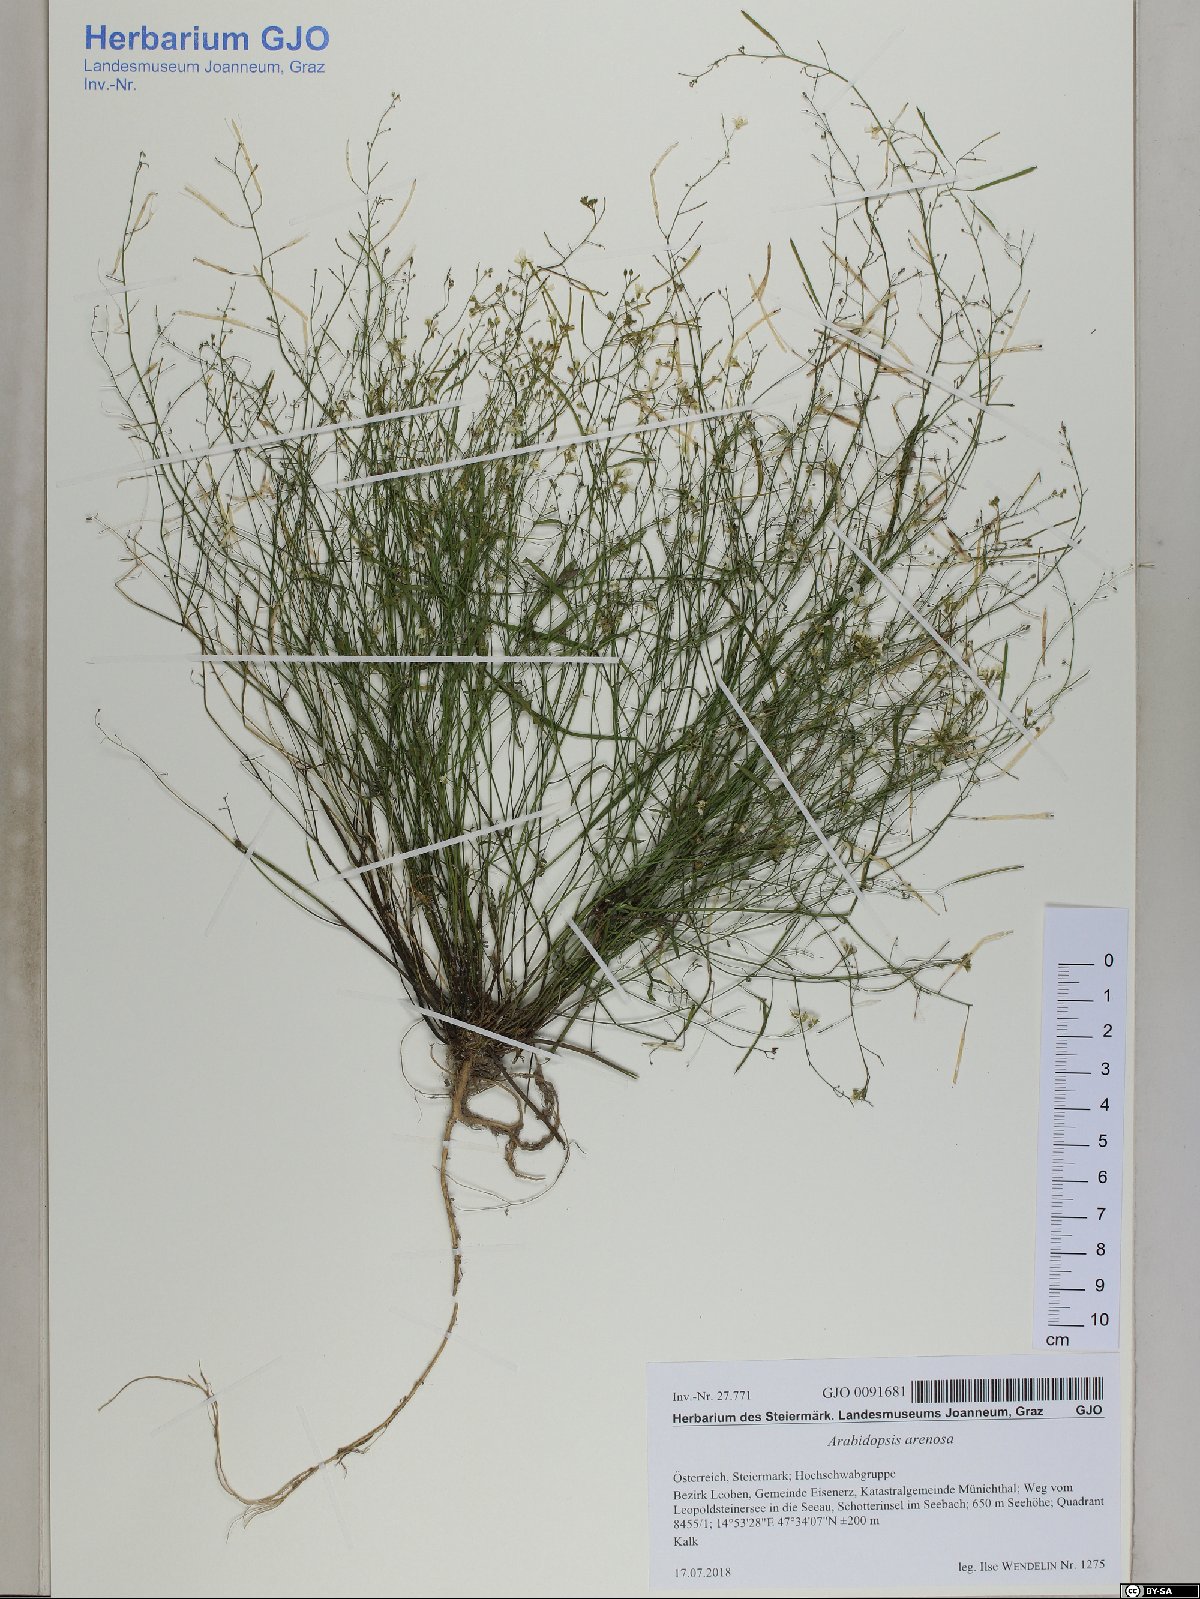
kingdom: Plantae
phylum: Tracheophyta
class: Magnoliopsida
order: Brassicales
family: Brassicaceae
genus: Arabidopsis
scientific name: Arabidopsis arenosa
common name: Sand rock-cress
